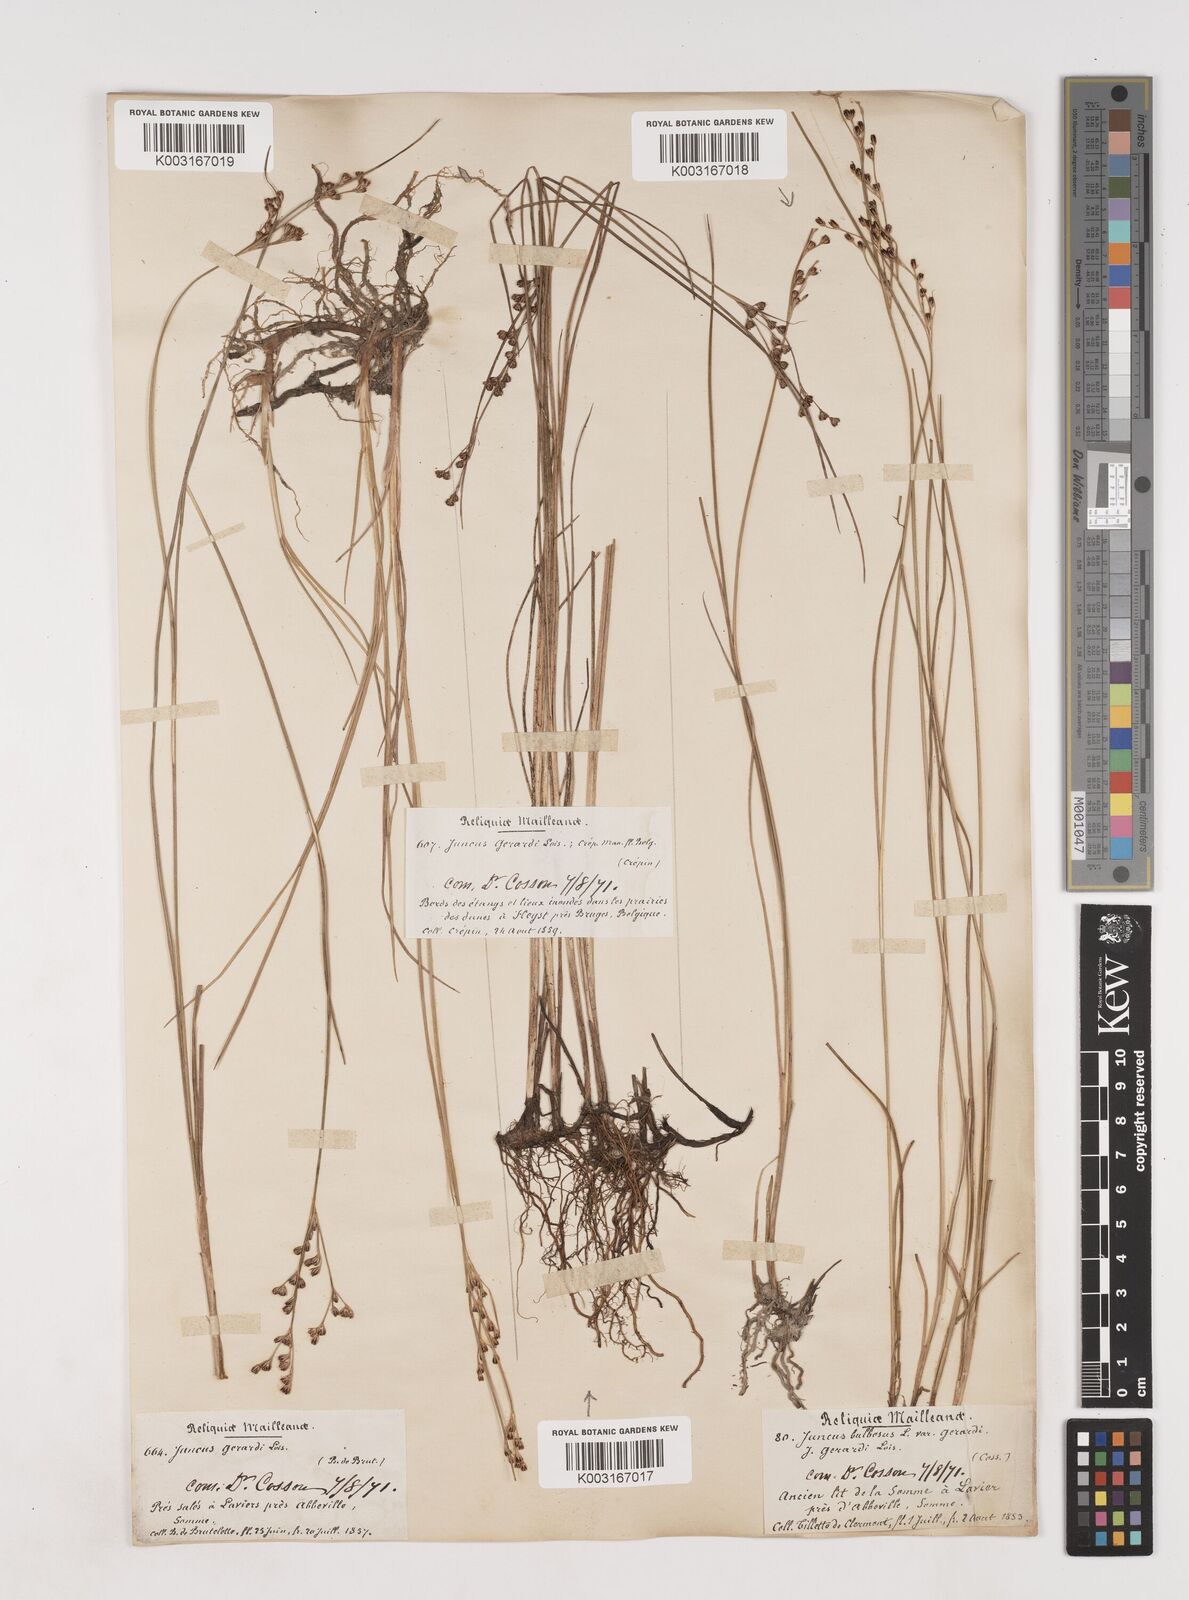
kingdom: Plantae
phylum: Tracheophyta
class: Liliopsida
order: Poales
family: Juncaceae
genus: Juncus
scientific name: Juncus gerardi
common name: Saltmarsh rush
